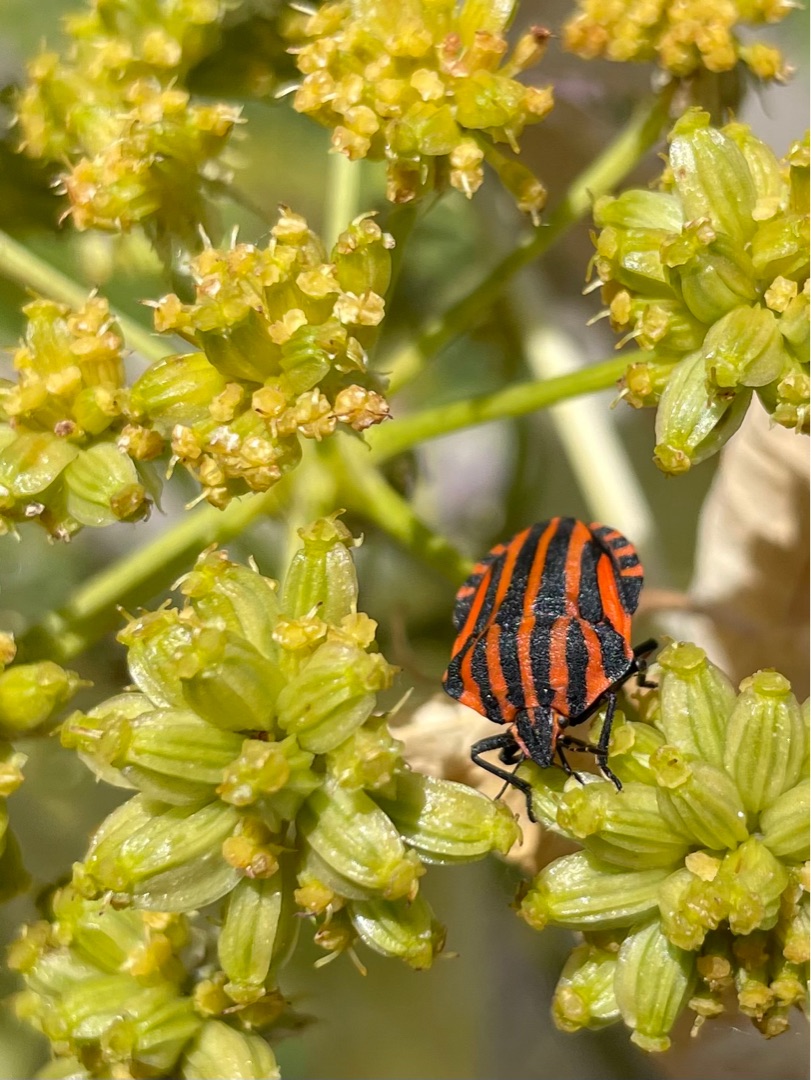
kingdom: Animalia
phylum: Arthropoda
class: Insecta
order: Hemiptera
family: Pentatomidae
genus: Graphosoma
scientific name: Graphosoma italicum
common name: Stribetæge
